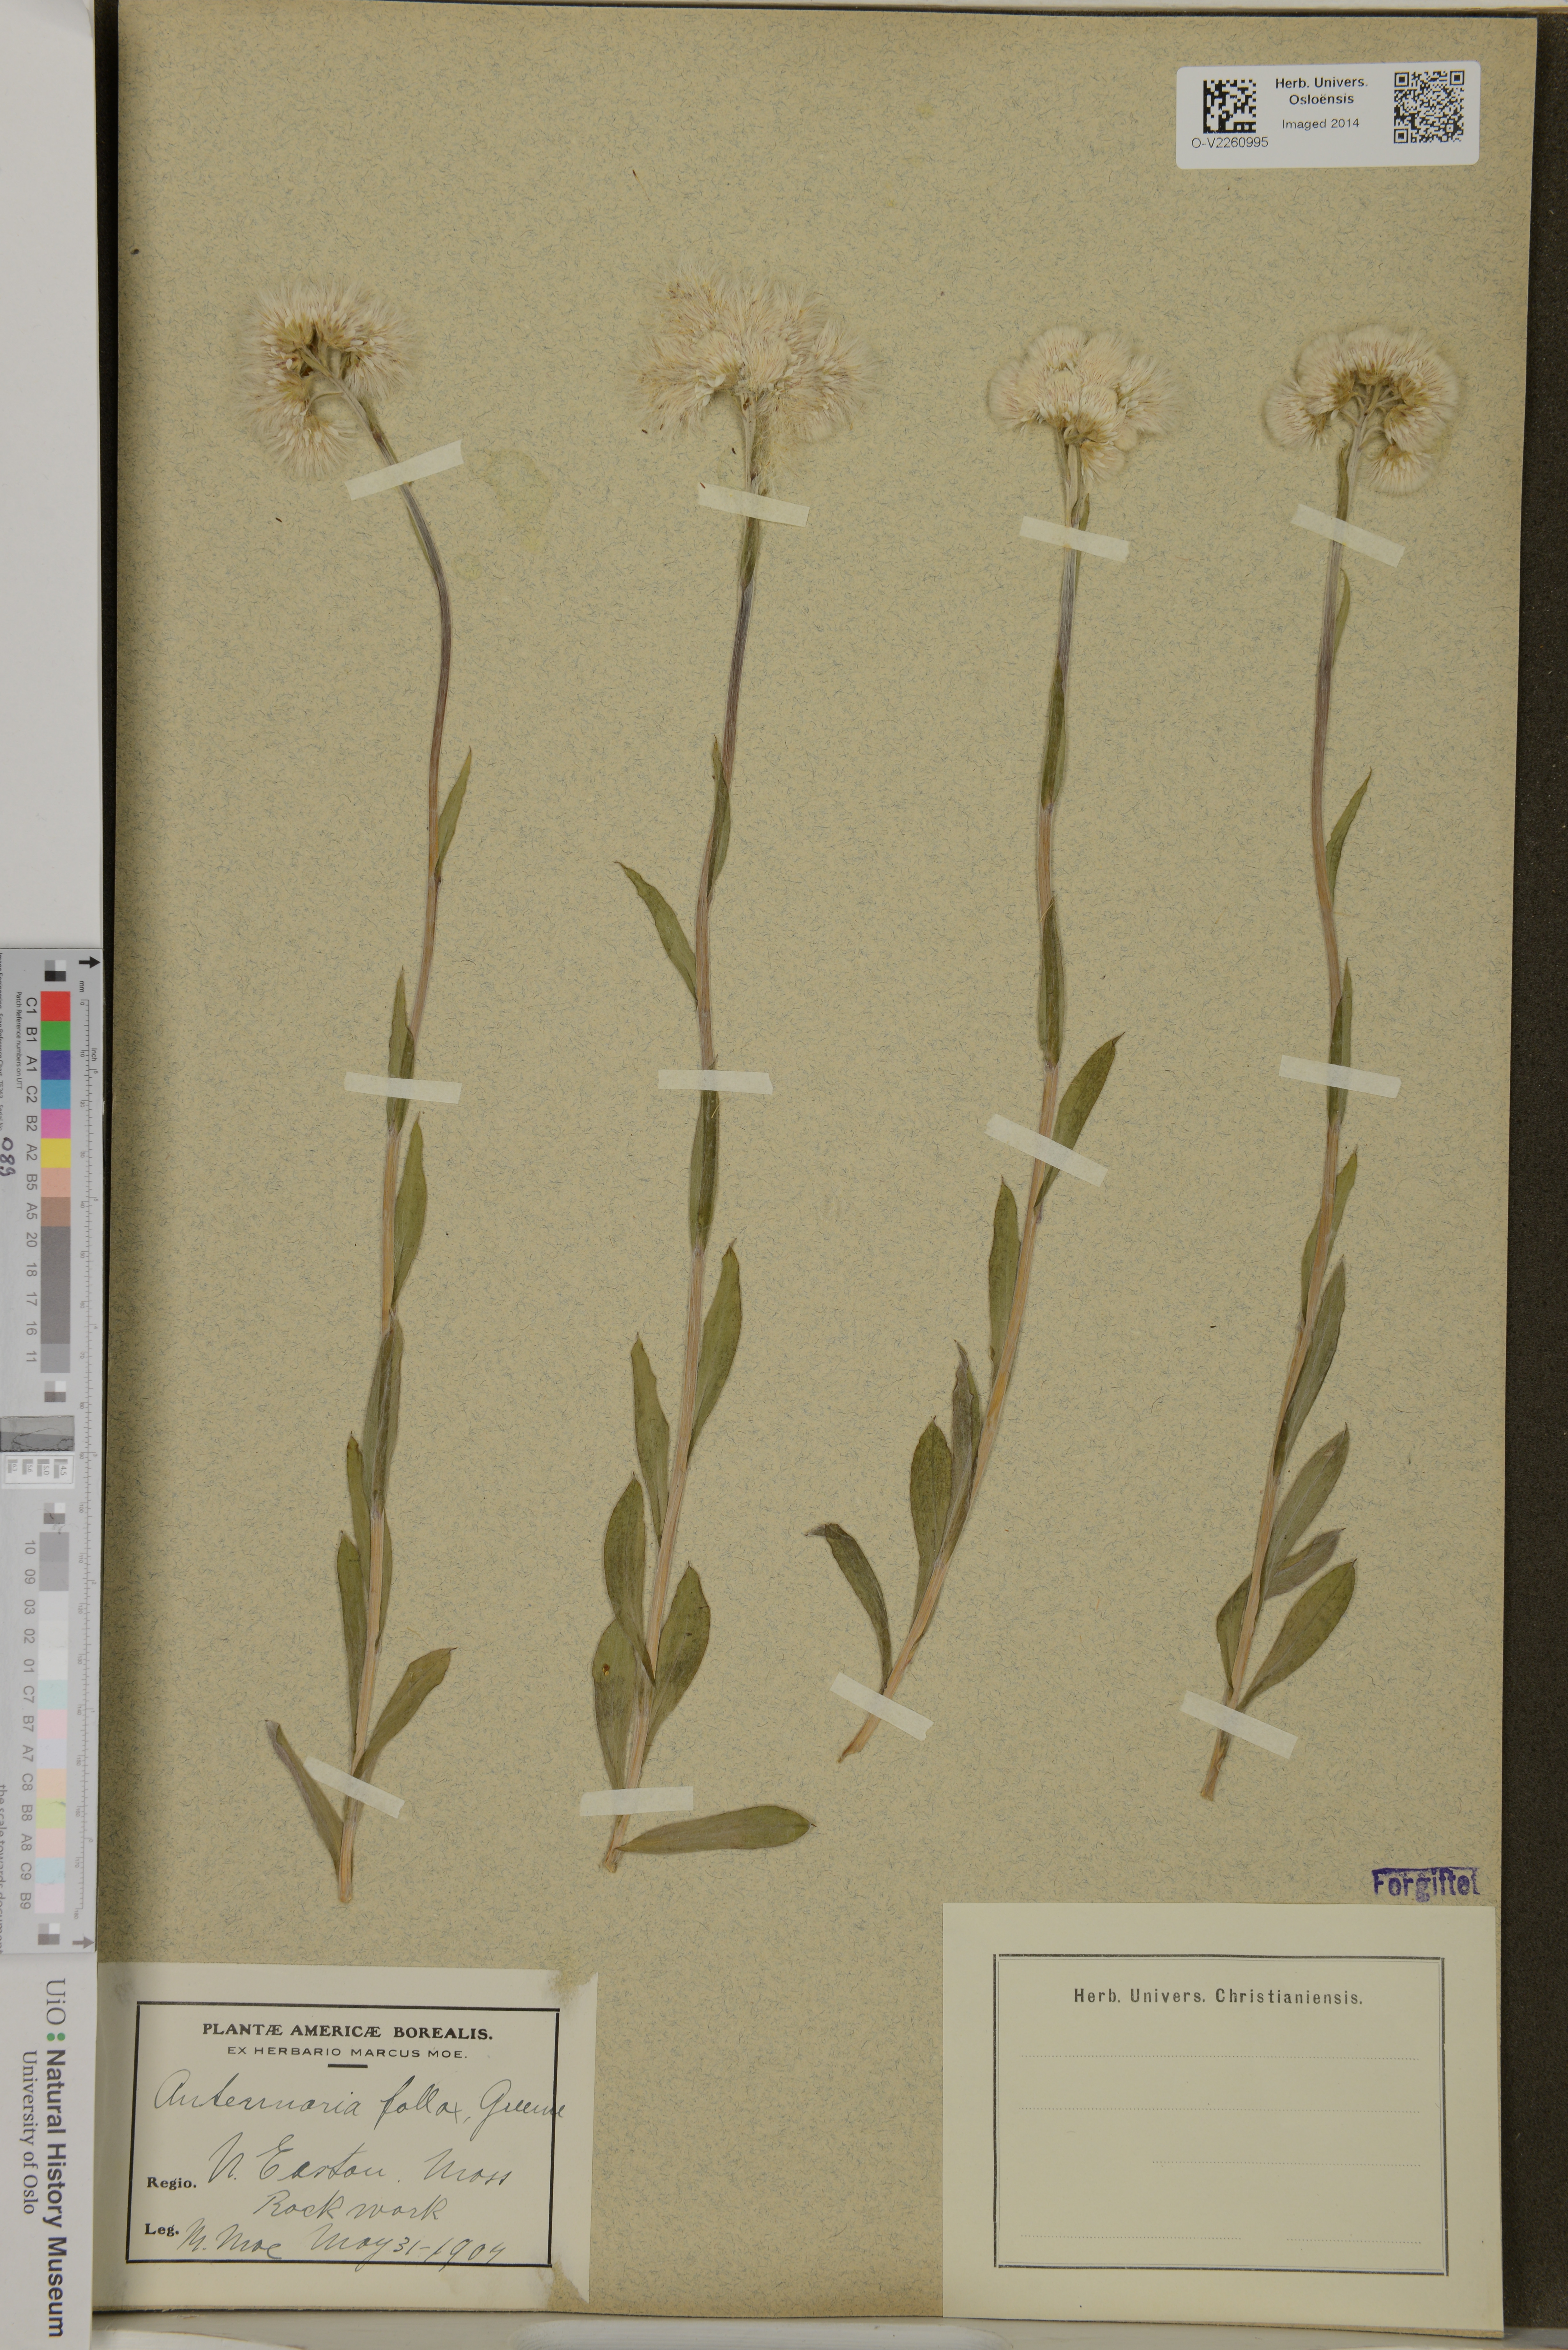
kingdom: Plantae
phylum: Tracheophyta
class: Magnoliopsida
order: Asterales
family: Asteraceae
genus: Antennaria
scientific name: Antennaria parlinii
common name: Parlin's pussytoes
